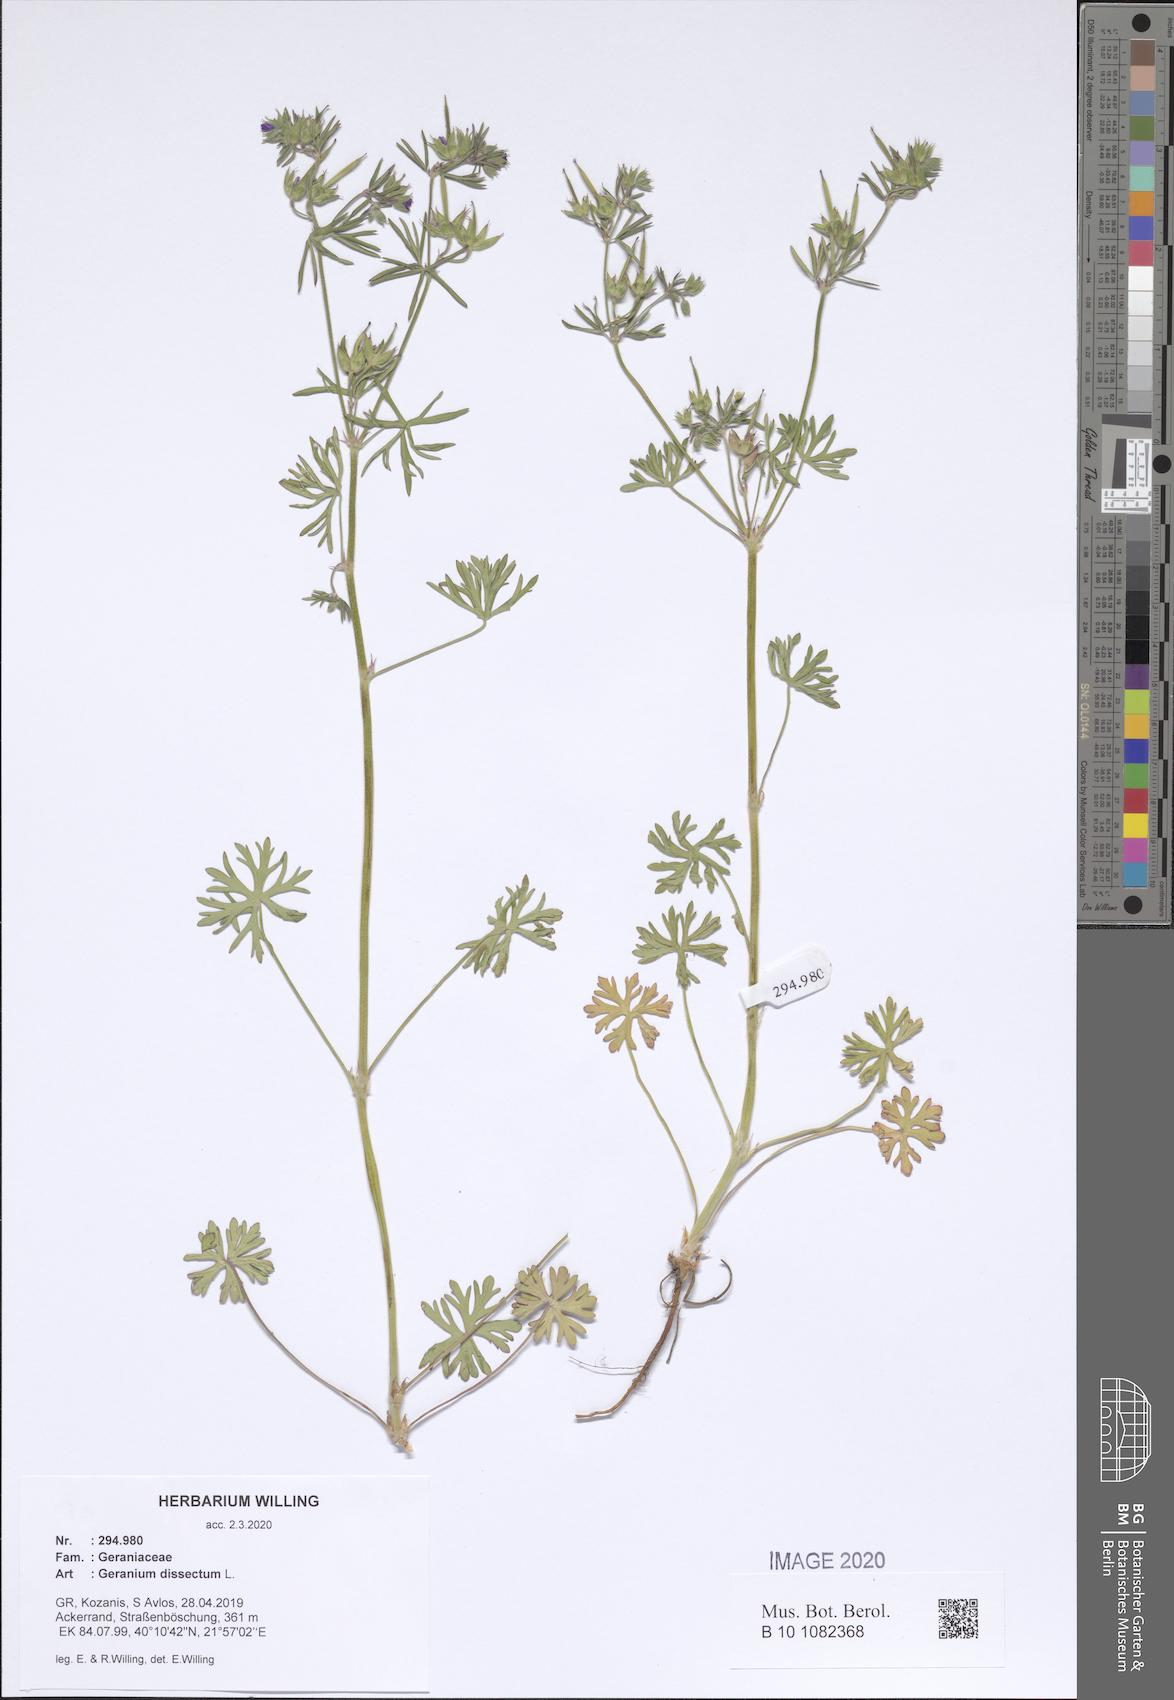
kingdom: Plantae
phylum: Tracheophyta
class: Magnoliopsida
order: Geraniales
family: Geraniaceae
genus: Geranium
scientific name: Geranium dissectum
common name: Cut-leaved crane's-bill
